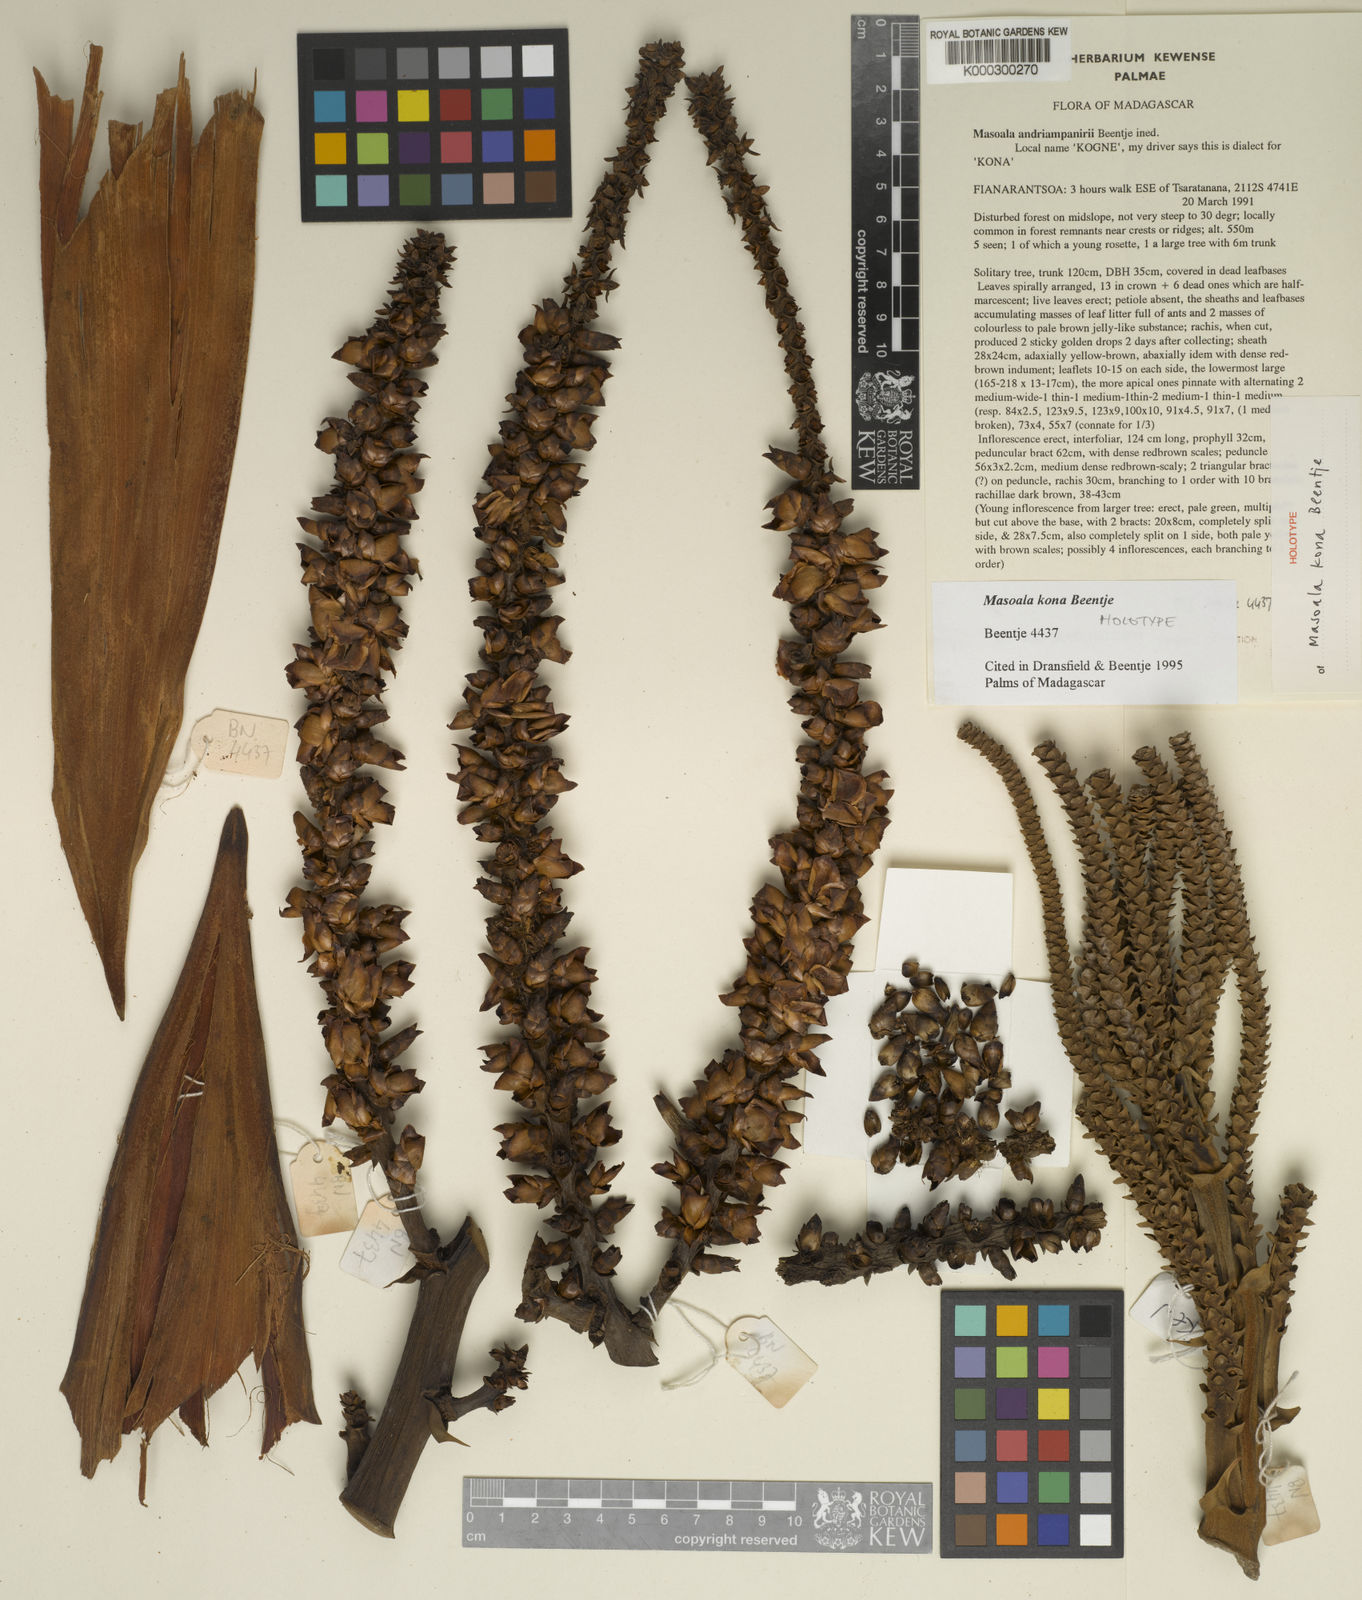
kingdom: Plantae
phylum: Tracheophyta
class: Liliopsida
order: Arecales
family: Arecaceae
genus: Masoala
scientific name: Masoala kona
